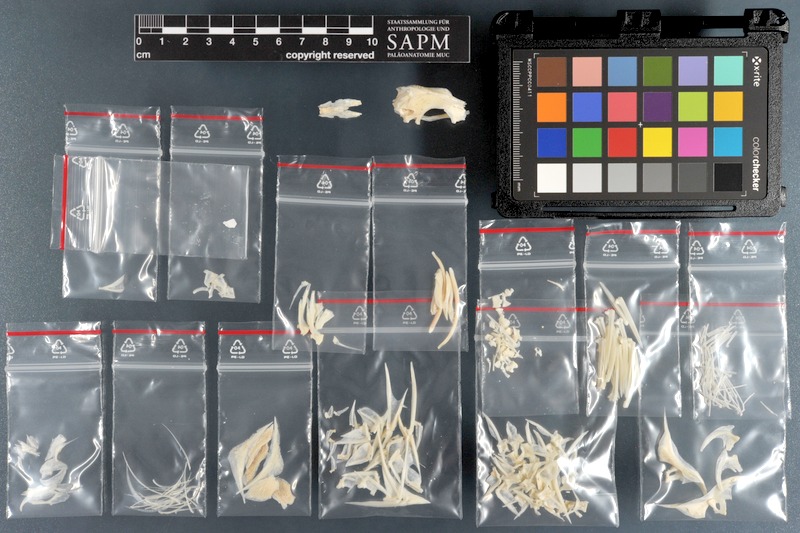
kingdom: Animalia
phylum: Chordata
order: Perciformes
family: Siganidae
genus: Siganus
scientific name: Siganus vulpinus
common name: Foxface
